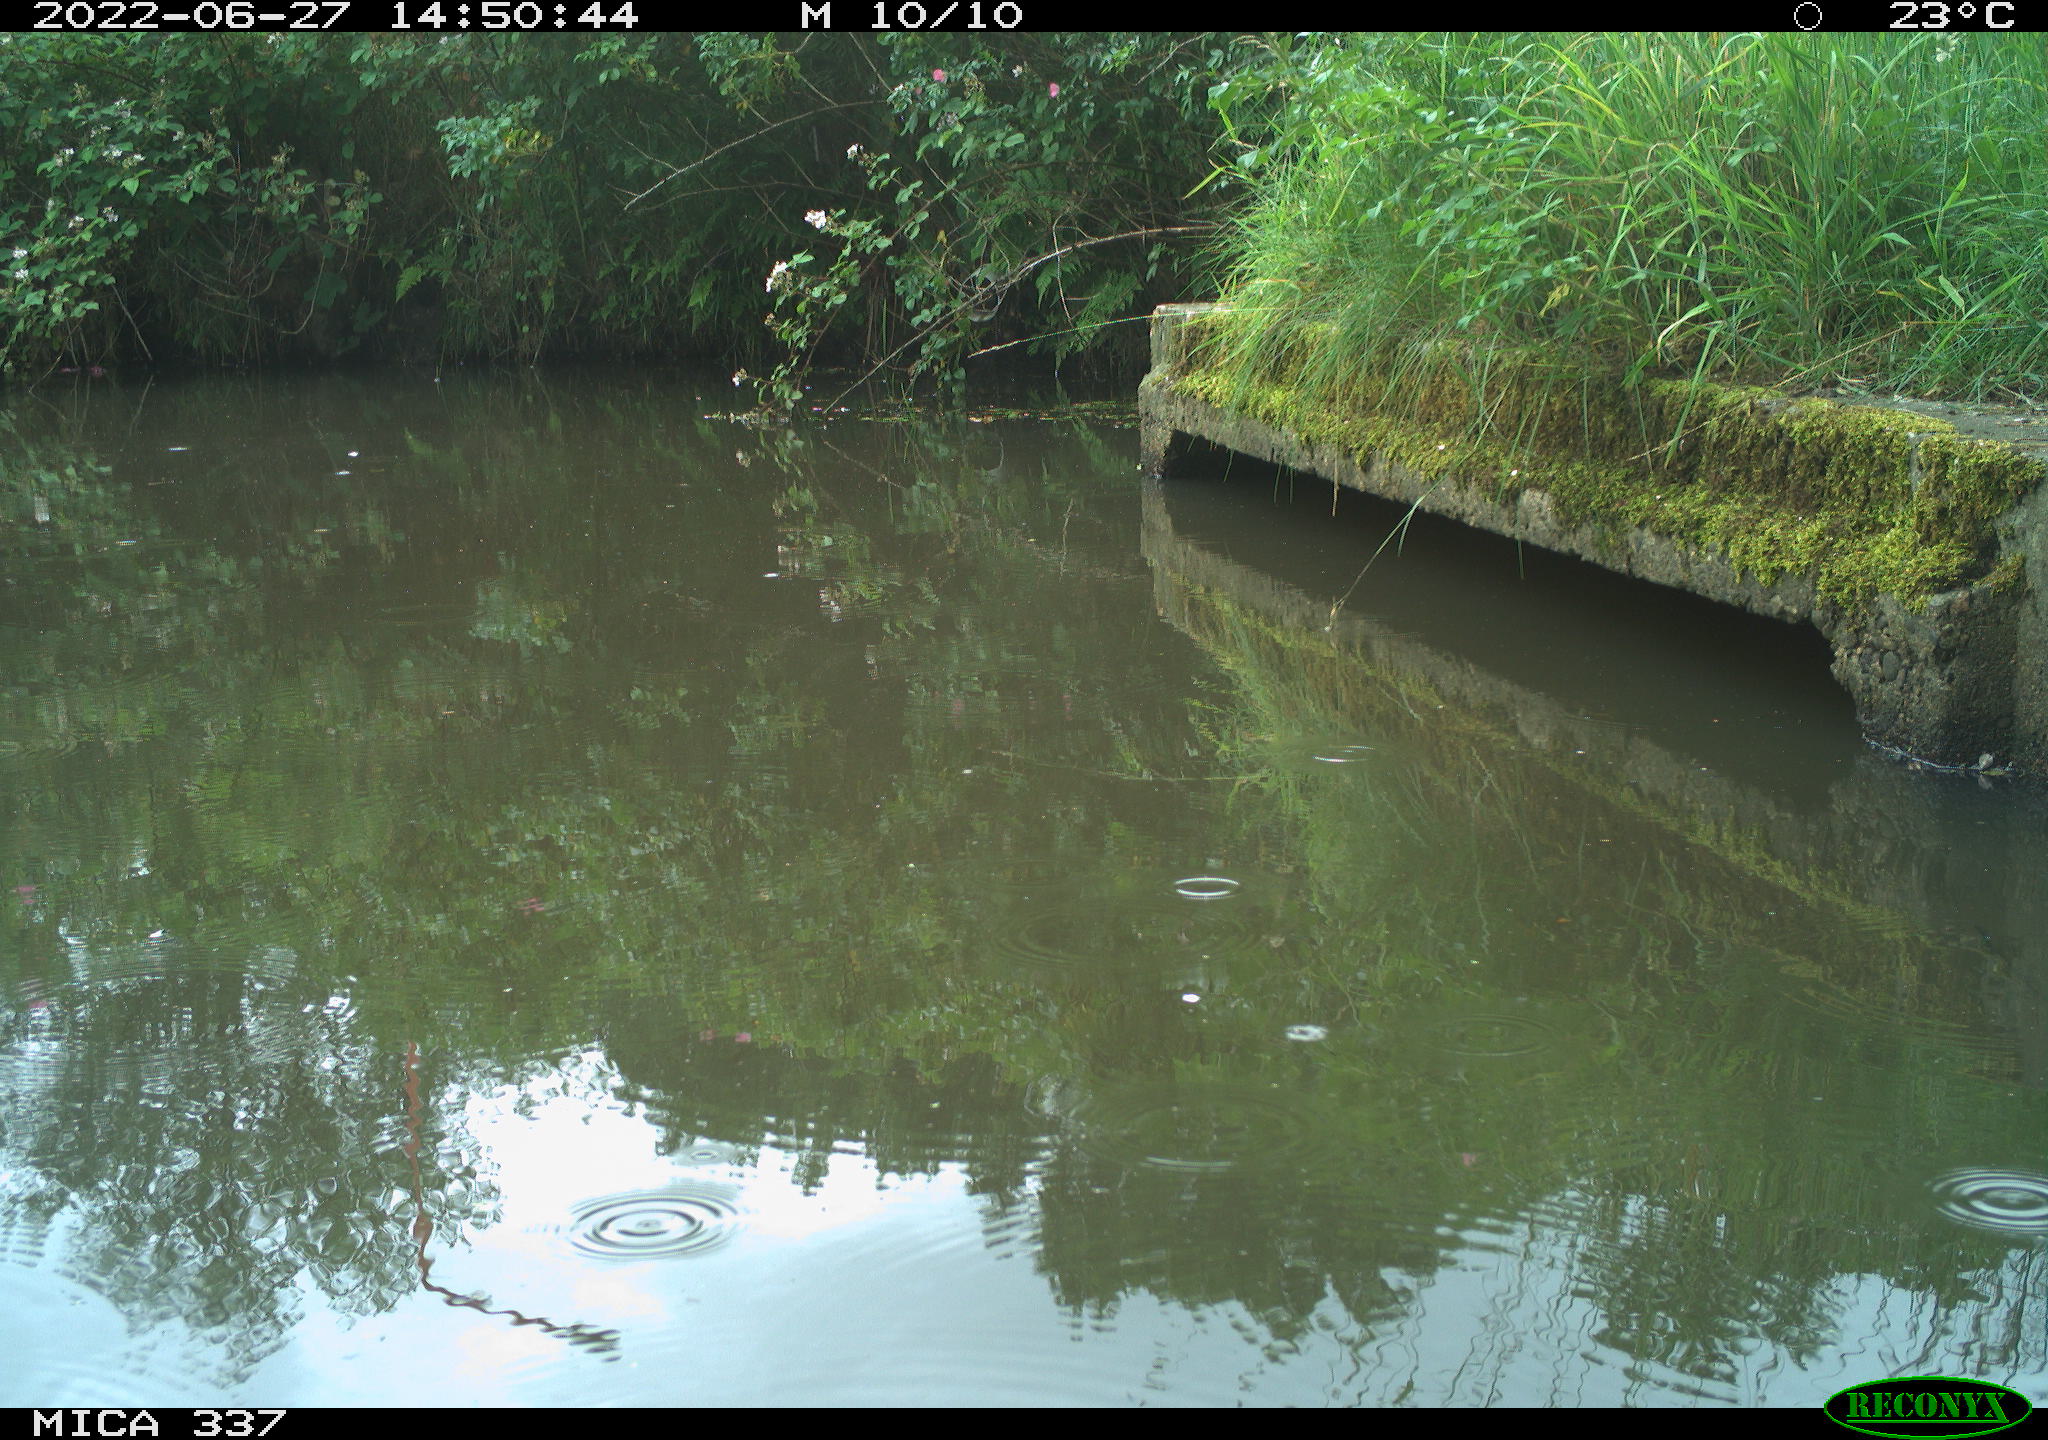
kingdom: Animalia
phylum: Chordata
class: Aves
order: Gruiformes
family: Rallidae
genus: Gallinula
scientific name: Gallinula chloropus
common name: Common moorhen
